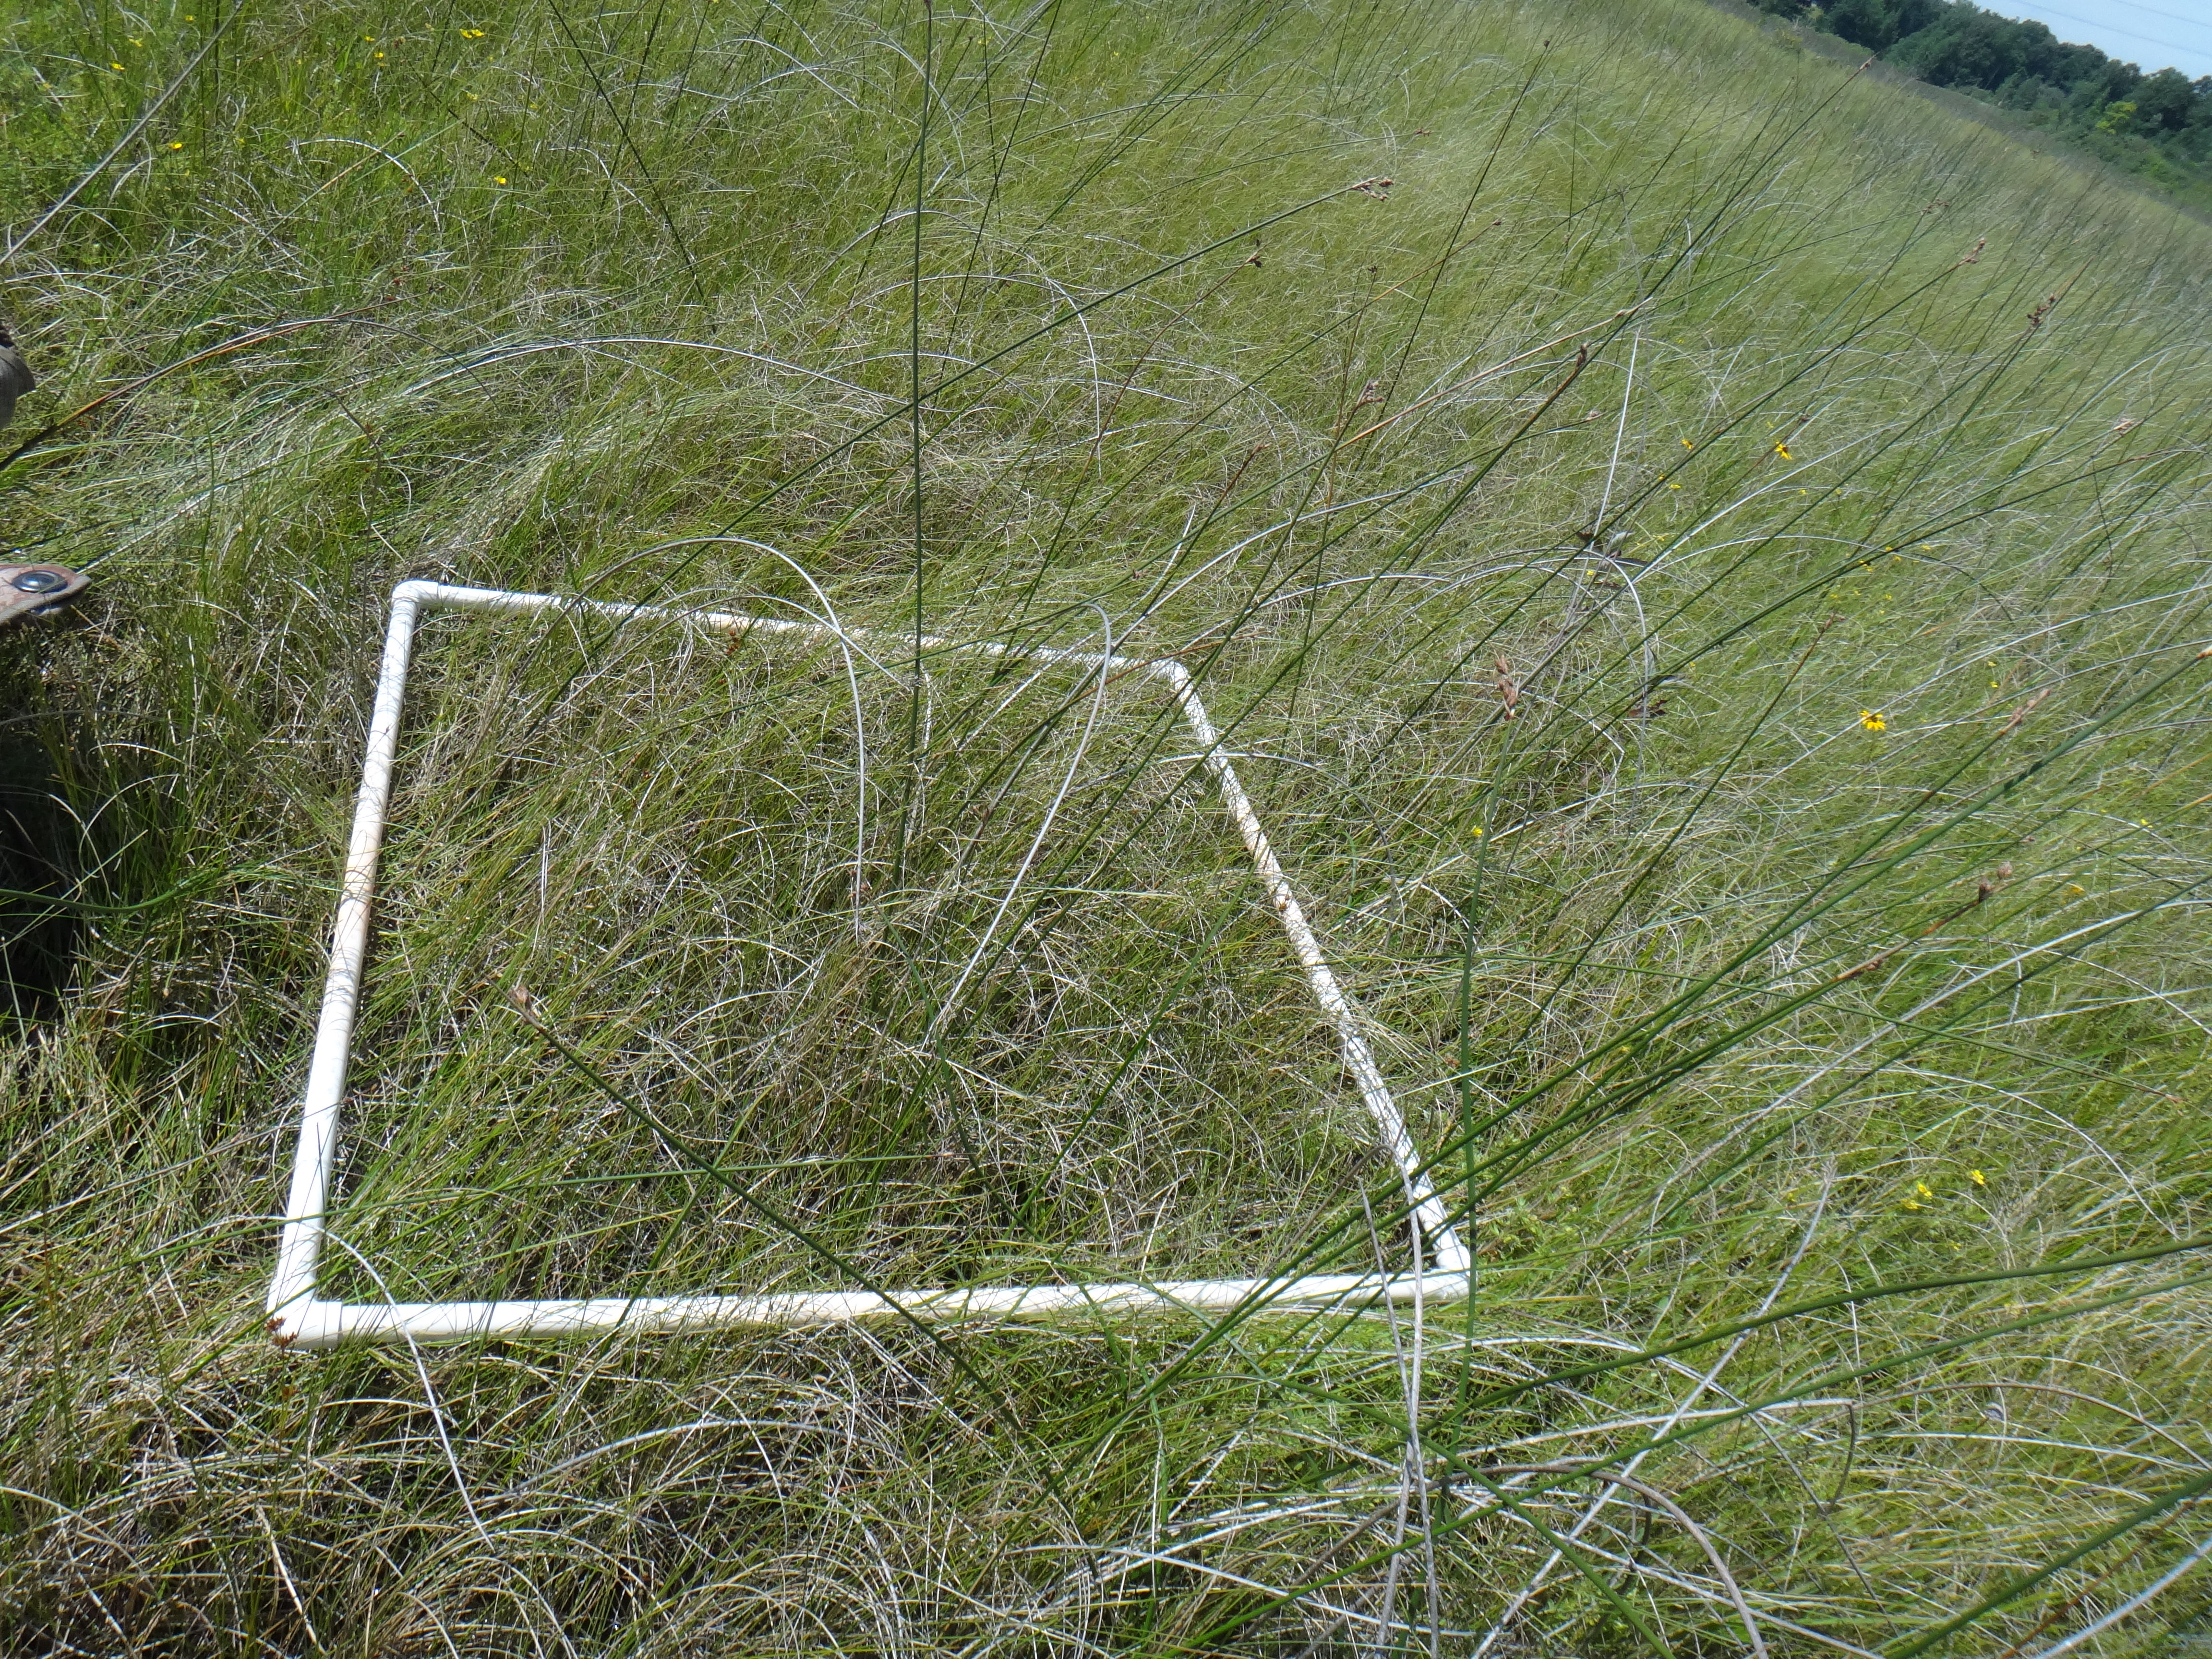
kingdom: Plantae
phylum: Tracheophyta
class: Liliopsida
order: Poales
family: Cyperaceae
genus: Carex
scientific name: Carex flava
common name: Large yellow-sedge
